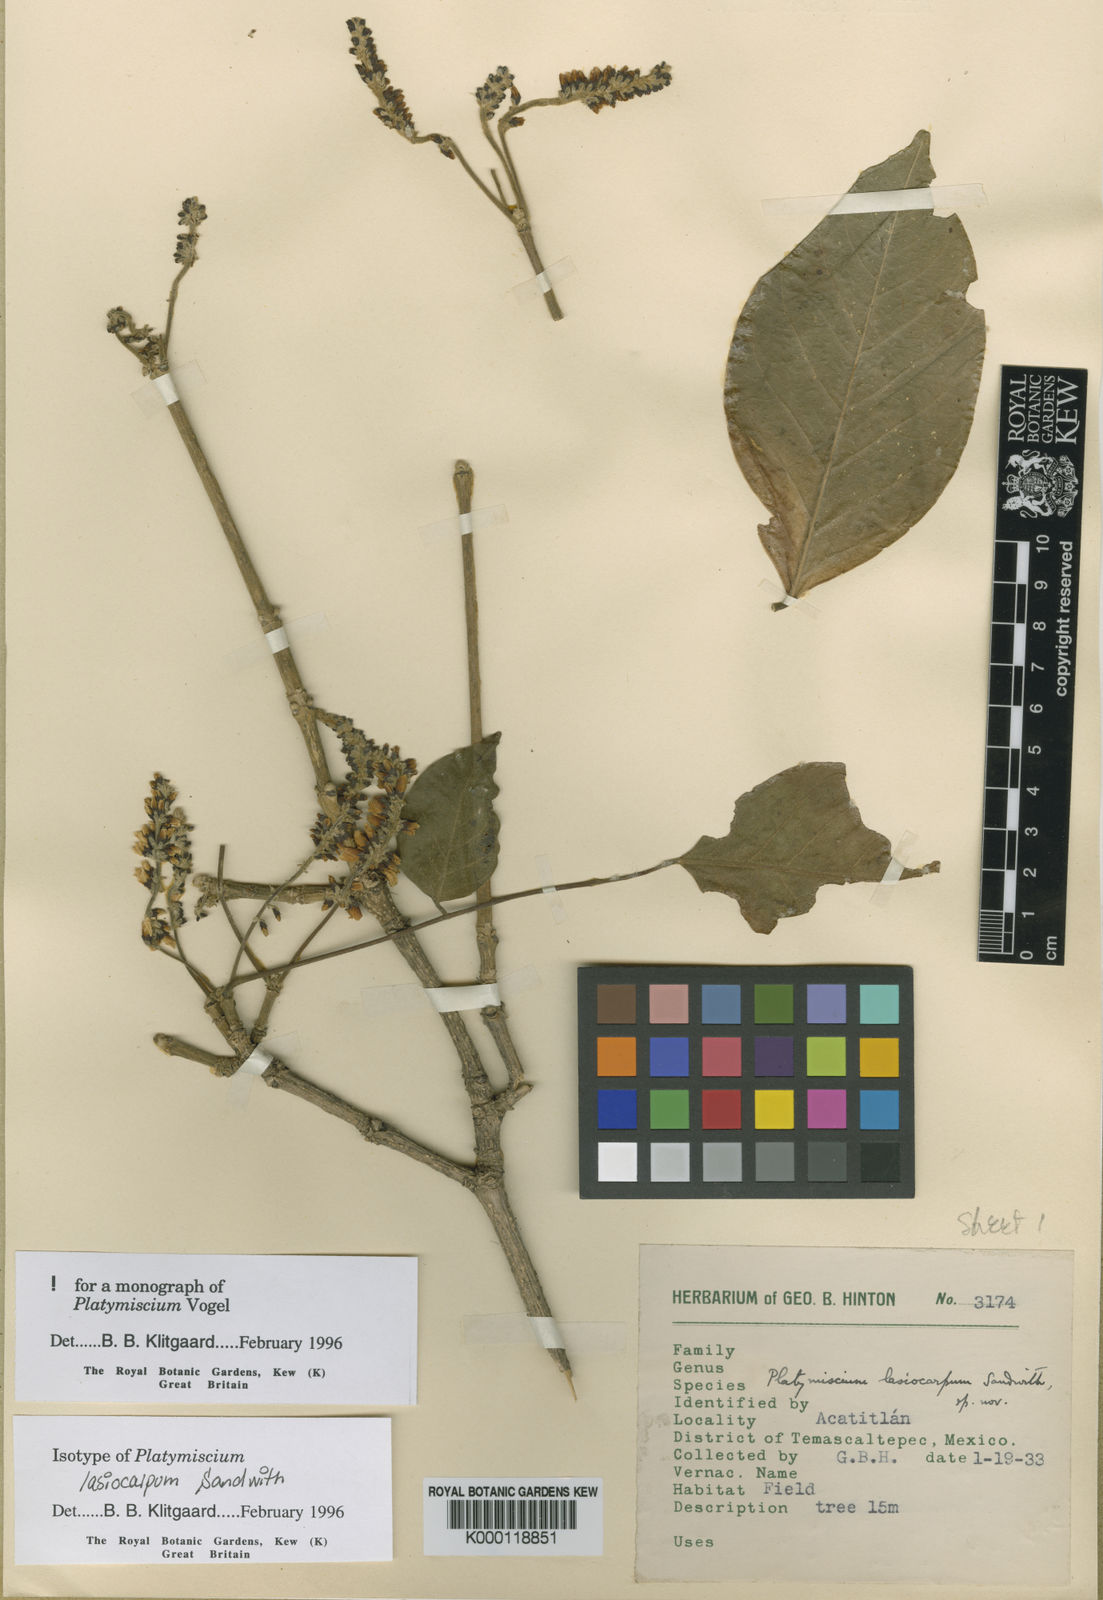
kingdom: Plantae
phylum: Tracheophyta
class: Magnoliopsida
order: Fabales
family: Fabaceae
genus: Platymiscium
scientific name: Platymiscium lasiocarpum
